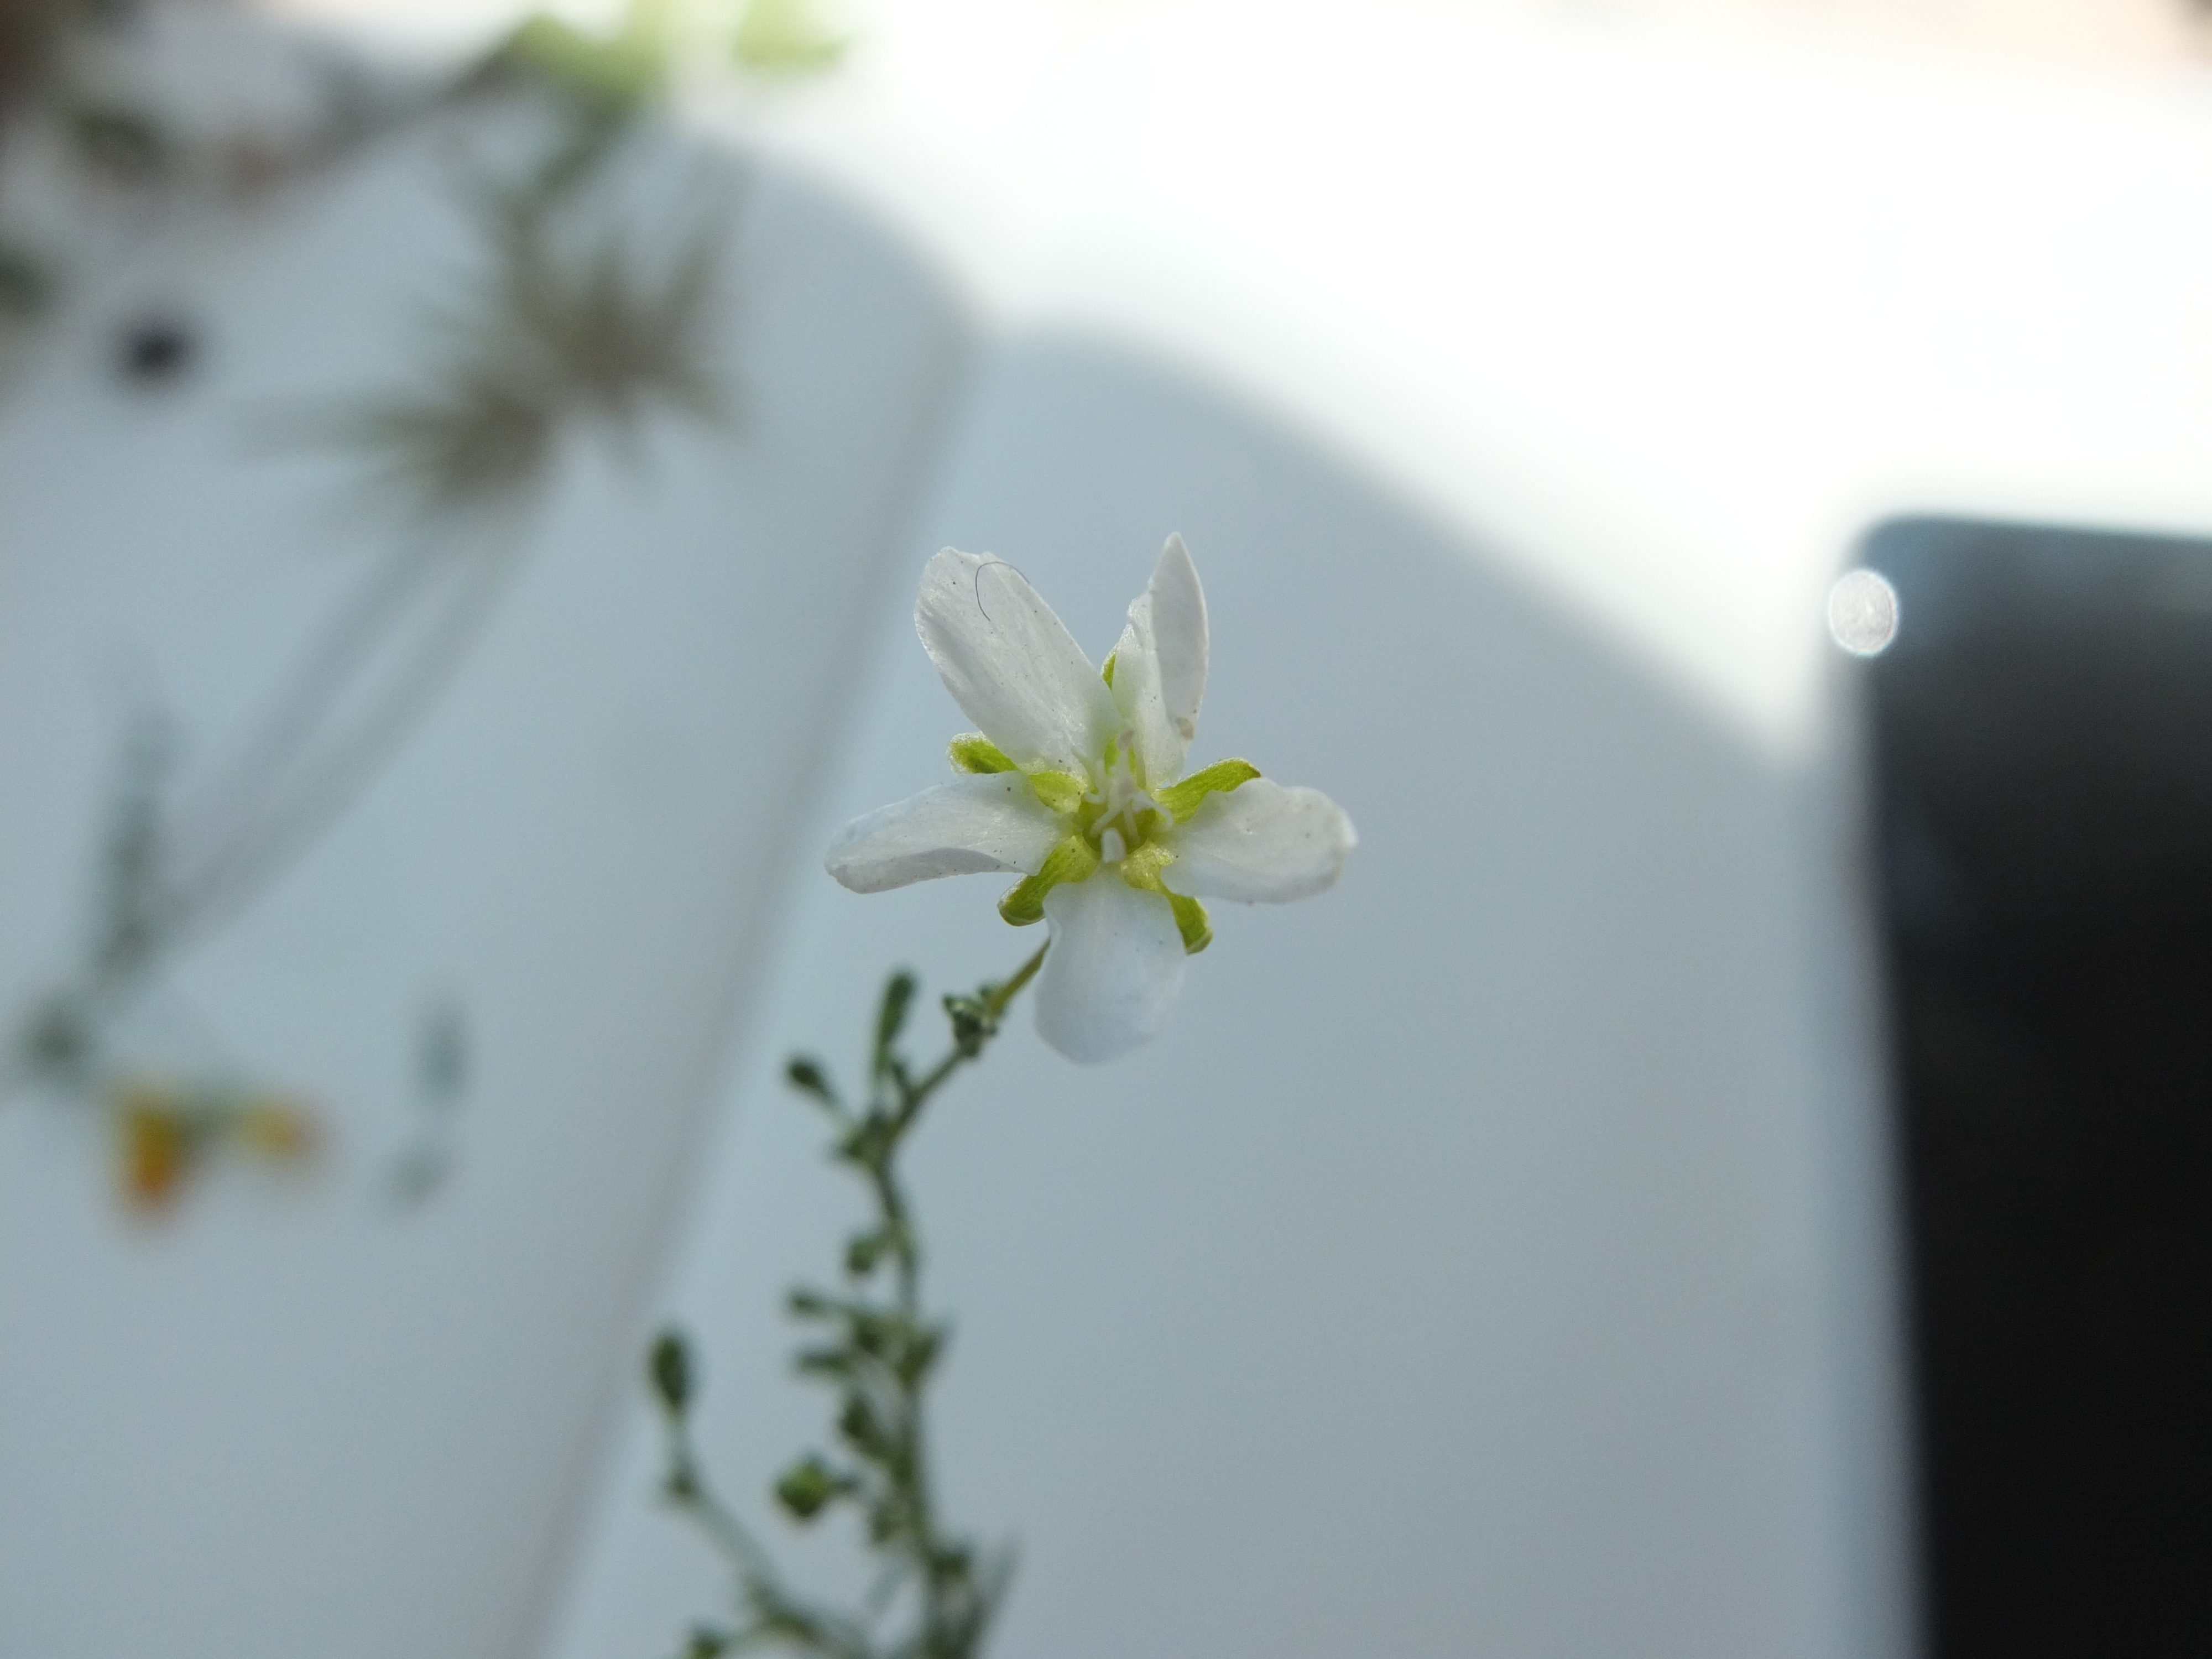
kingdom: Plantae
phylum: Tracheophyta
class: Magnoliopsida
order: Caryophyllales
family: Caryophyllaceae
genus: Sagina
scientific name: Sagina nodosa
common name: Knude-firling
